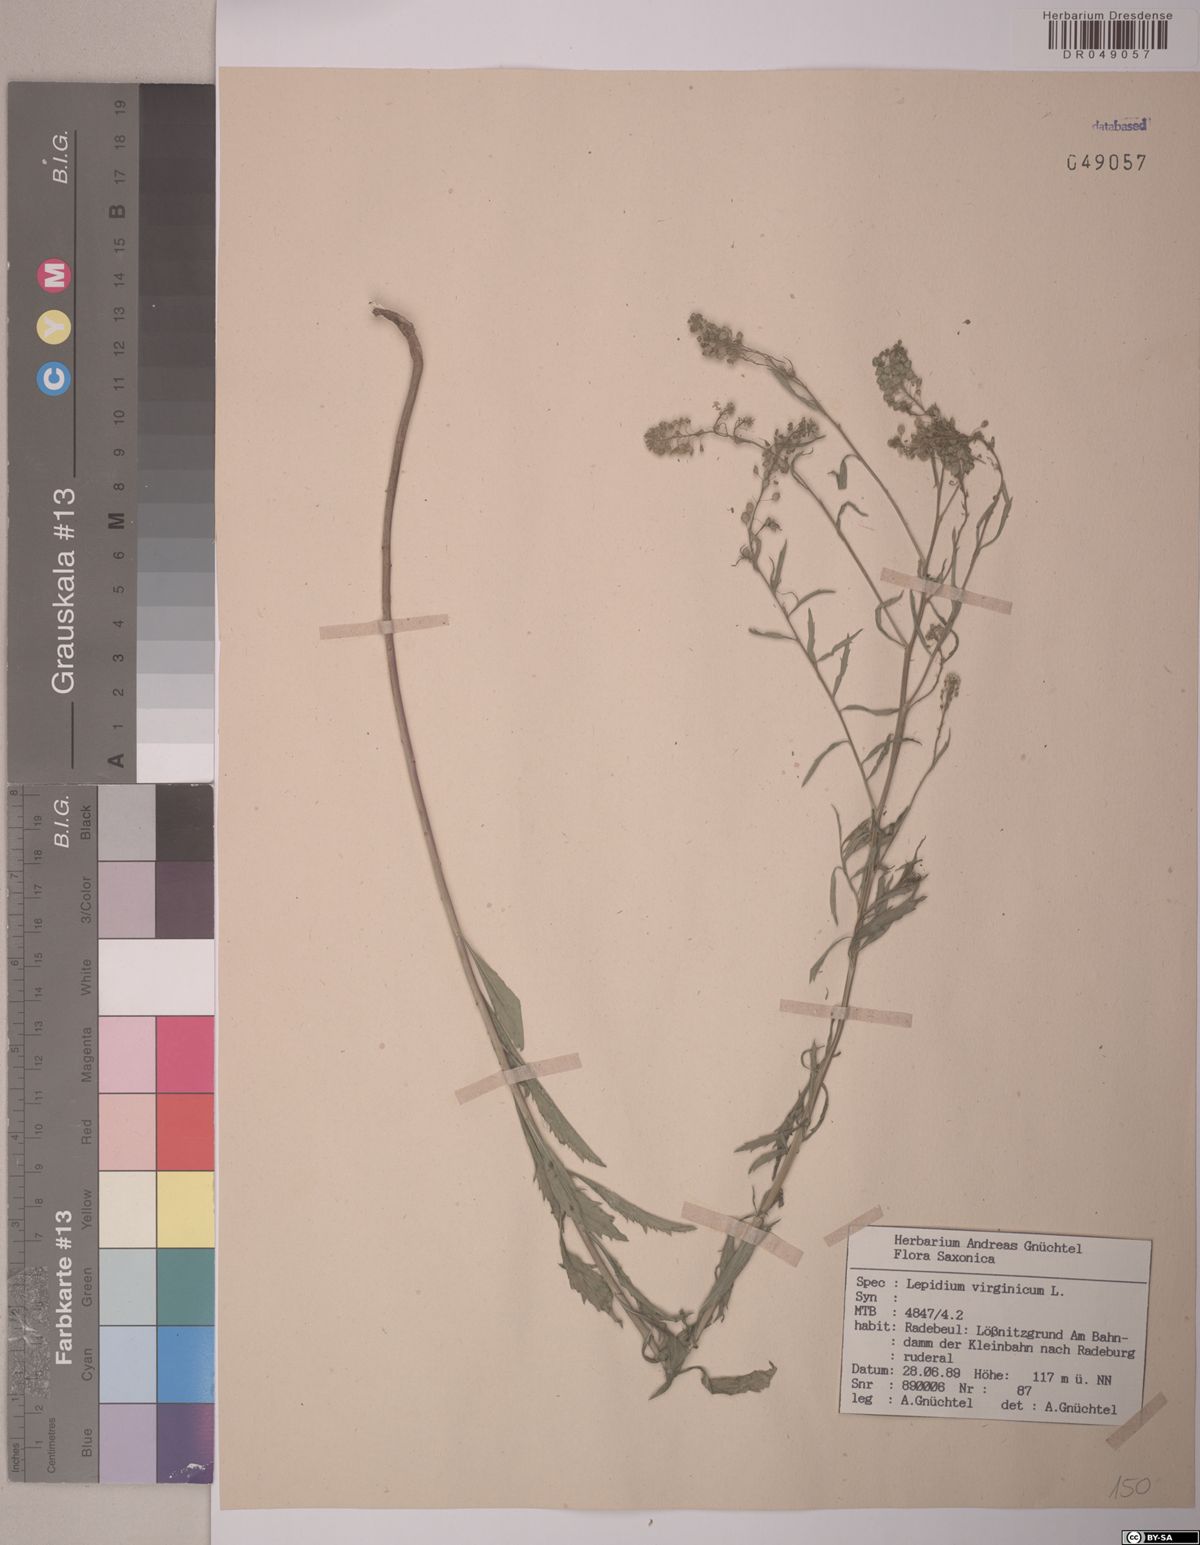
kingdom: Plantae
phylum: Tracheophyta
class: Magnoliopsida
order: Brassicales
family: Brassicaceae
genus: Lepidium
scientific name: Lepidium virginicum
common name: Least pepperwort
